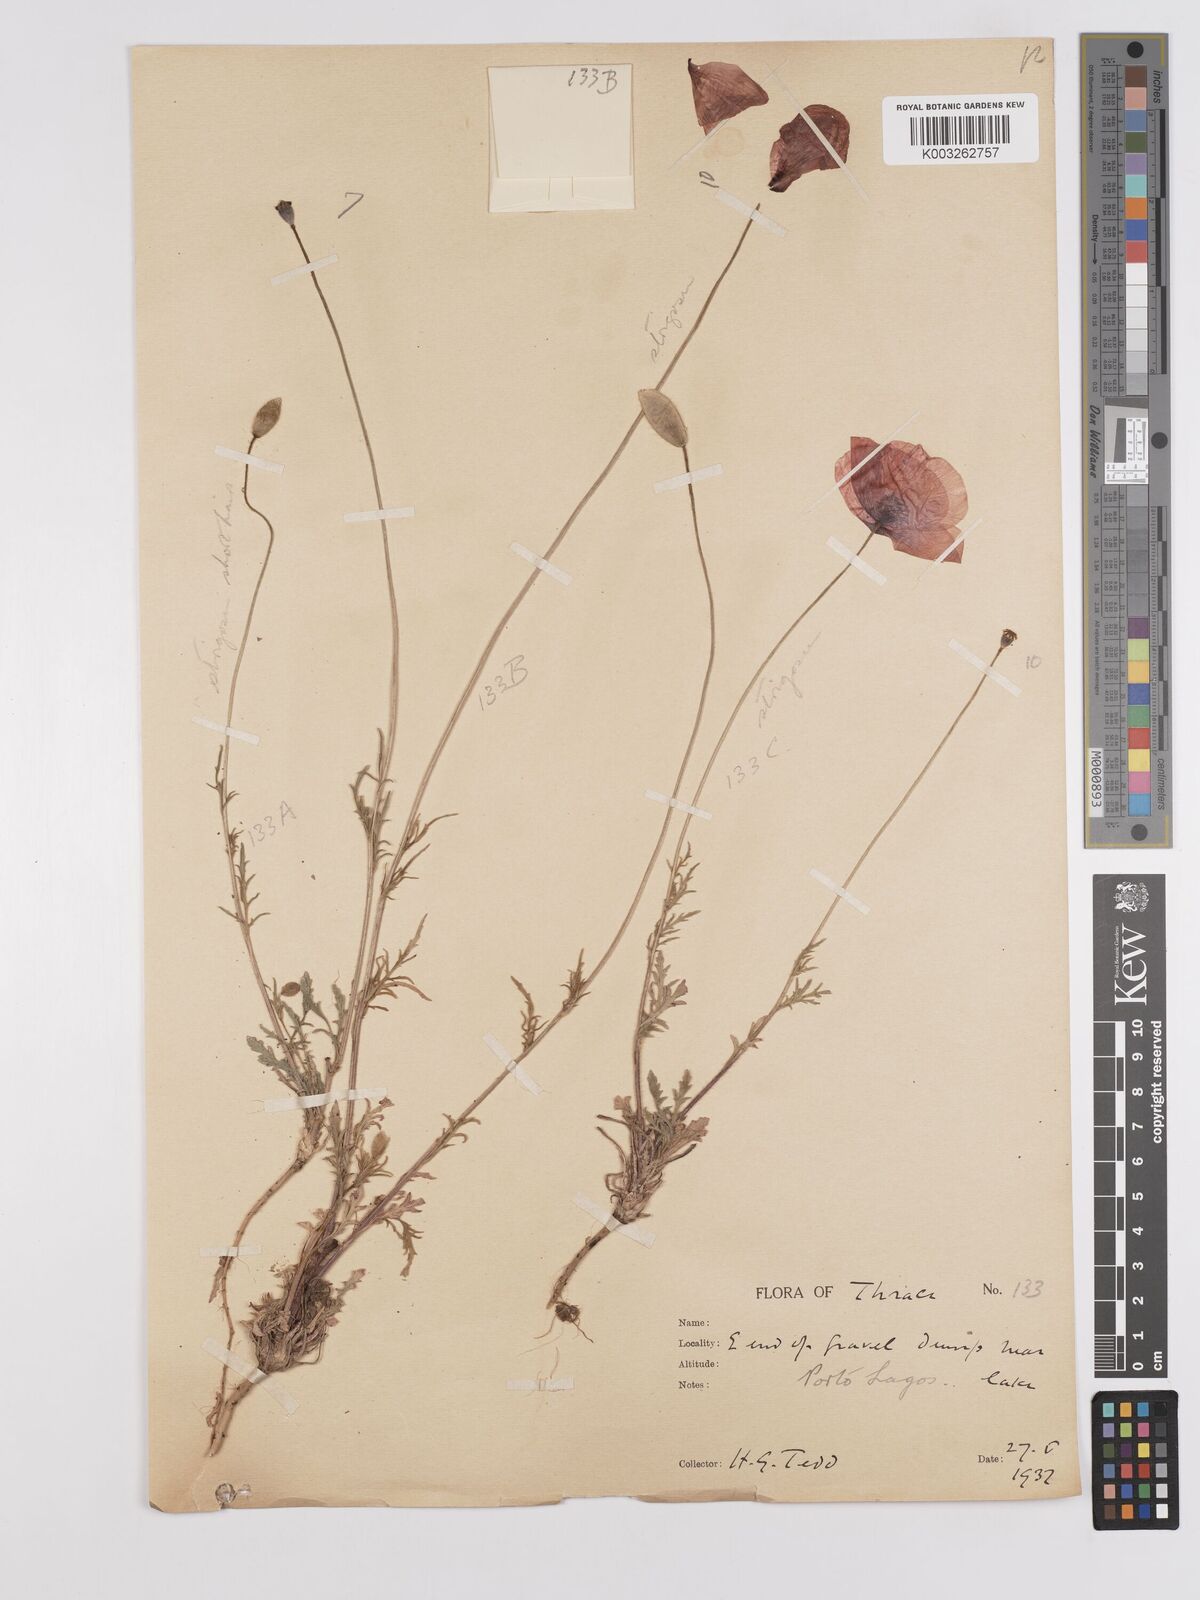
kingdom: Plantae
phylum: Tracheophyta
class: Magnoliopsida
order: Ranunculales
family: Papaveraceae
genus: Papaver
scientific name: Papaver
